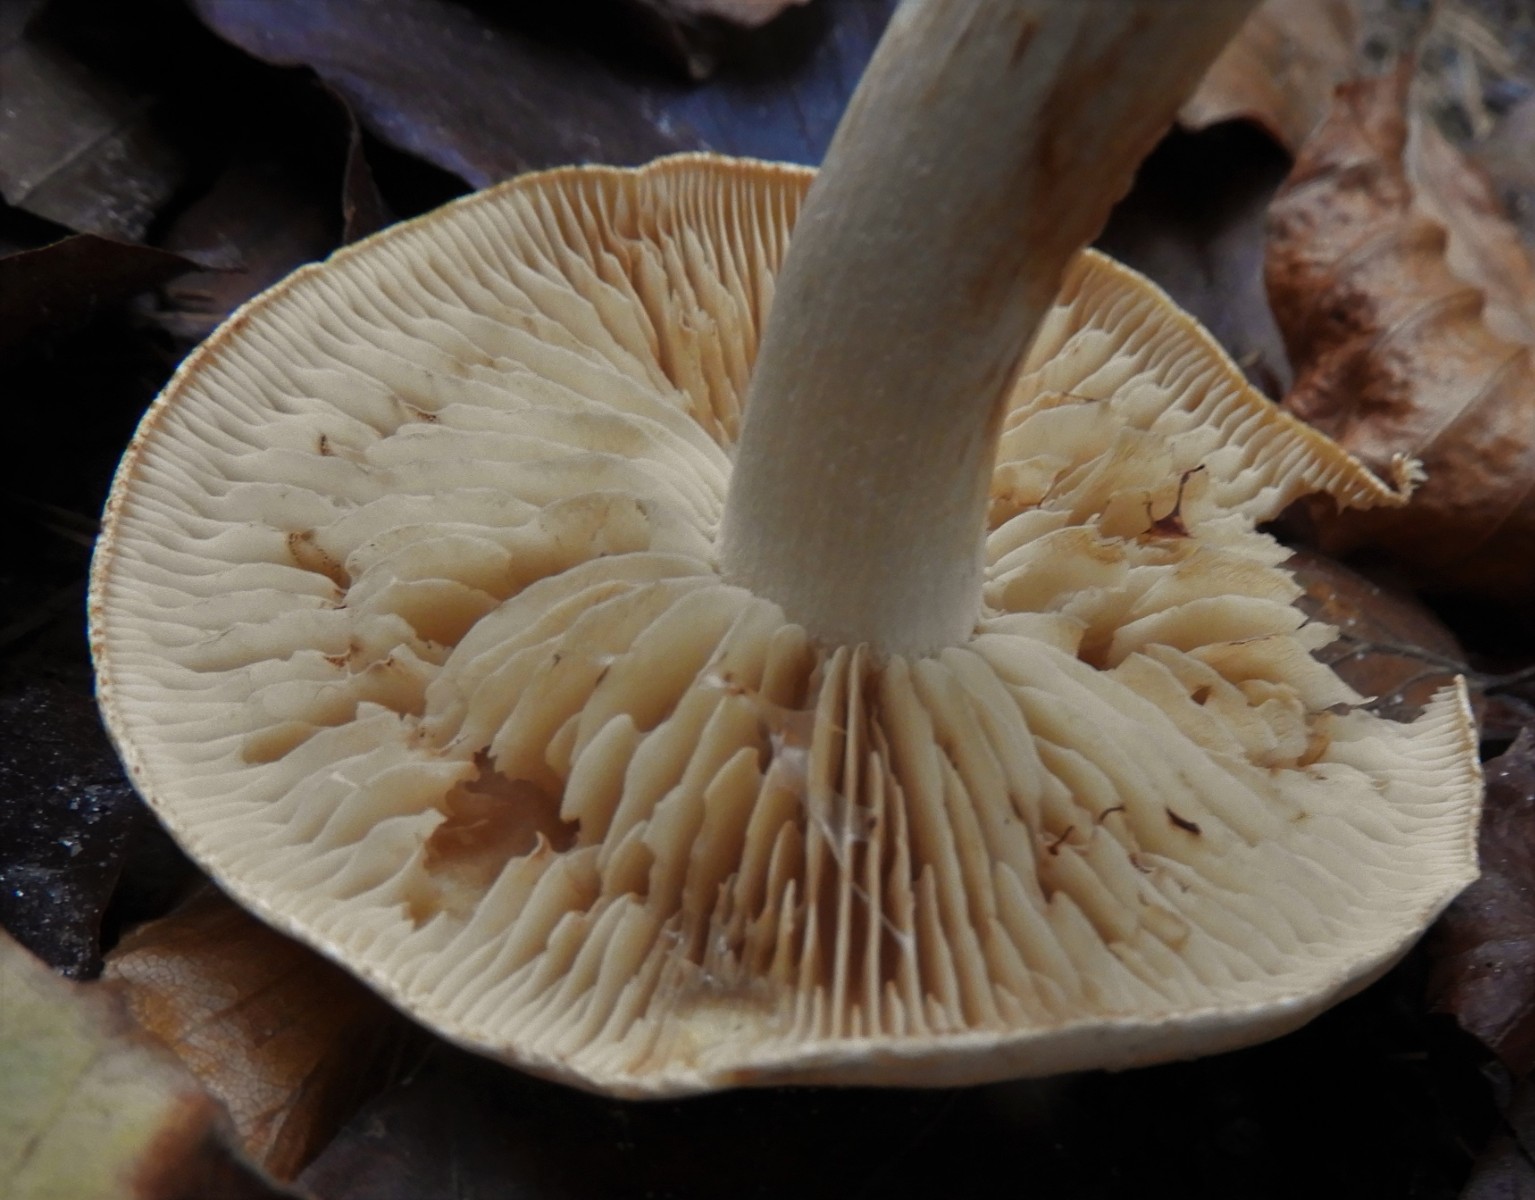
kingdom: Fungi
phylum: Basidiomycota
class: Agaricomycetes
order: Agaricales
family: Entolomataceae
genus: Entoloma
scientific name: Entoloma
